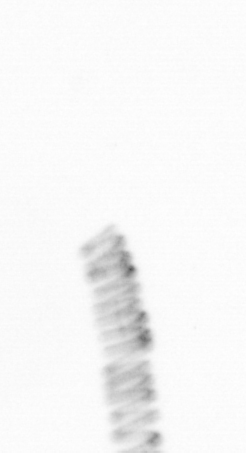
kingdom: Chromista
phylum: Ochrophyta
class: Bacillariophyceae
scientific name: Bacillariophyceae
